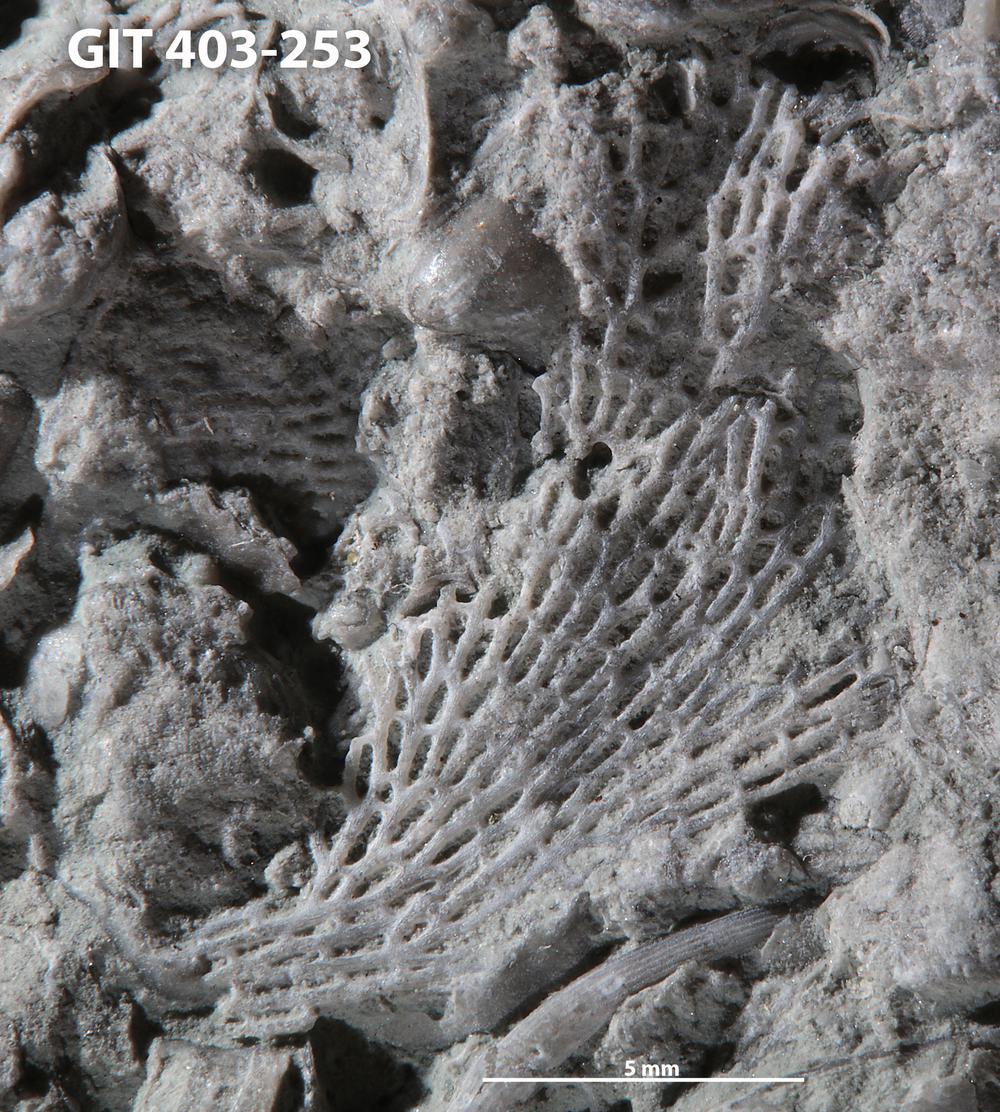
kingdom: Animalia
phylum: Bryozoa
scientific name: Bryozoa
